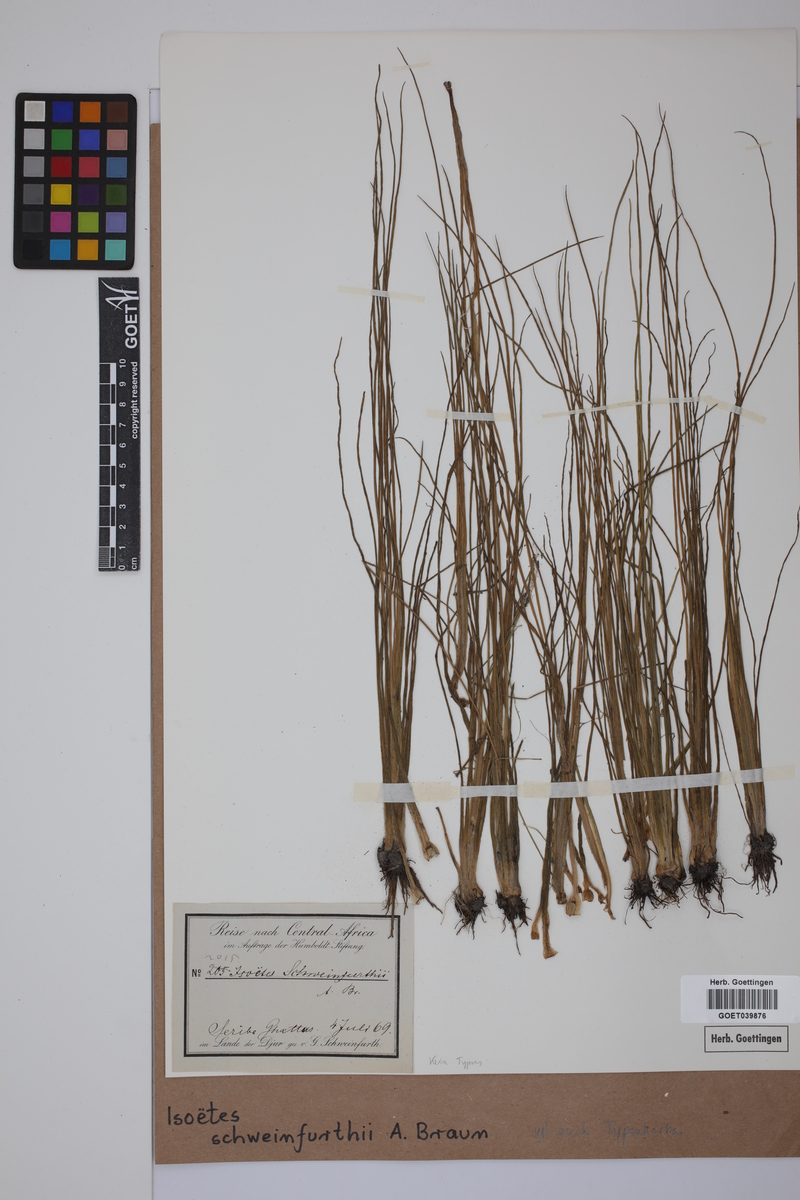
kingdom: Plantae
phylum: Tracheophyta
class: Lycopodiopsida
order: Isoetales
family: Isoetaceae
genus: Isoetes
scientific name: Isoetes schweinfurthii
